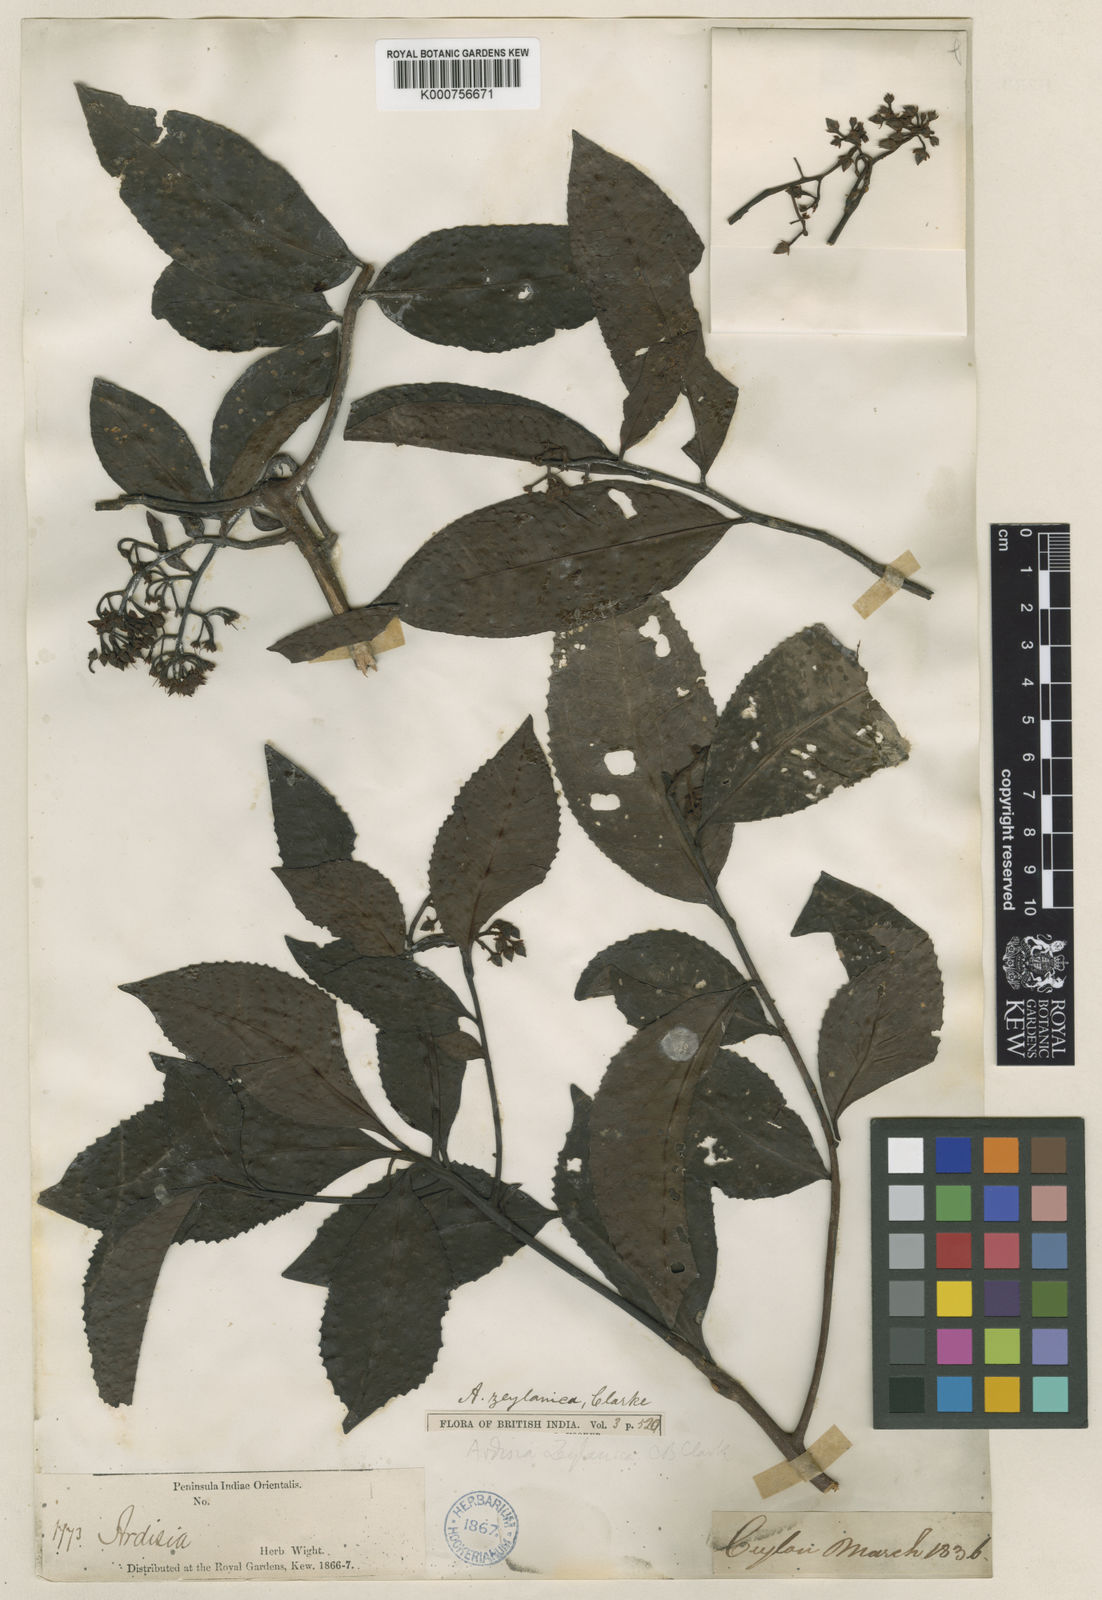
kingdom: Plantae
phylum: Tracheophyta
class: Magnoliopsida
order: Ericales
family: Primulaceae
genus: Ardisia
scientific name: Ardisia gardneri
